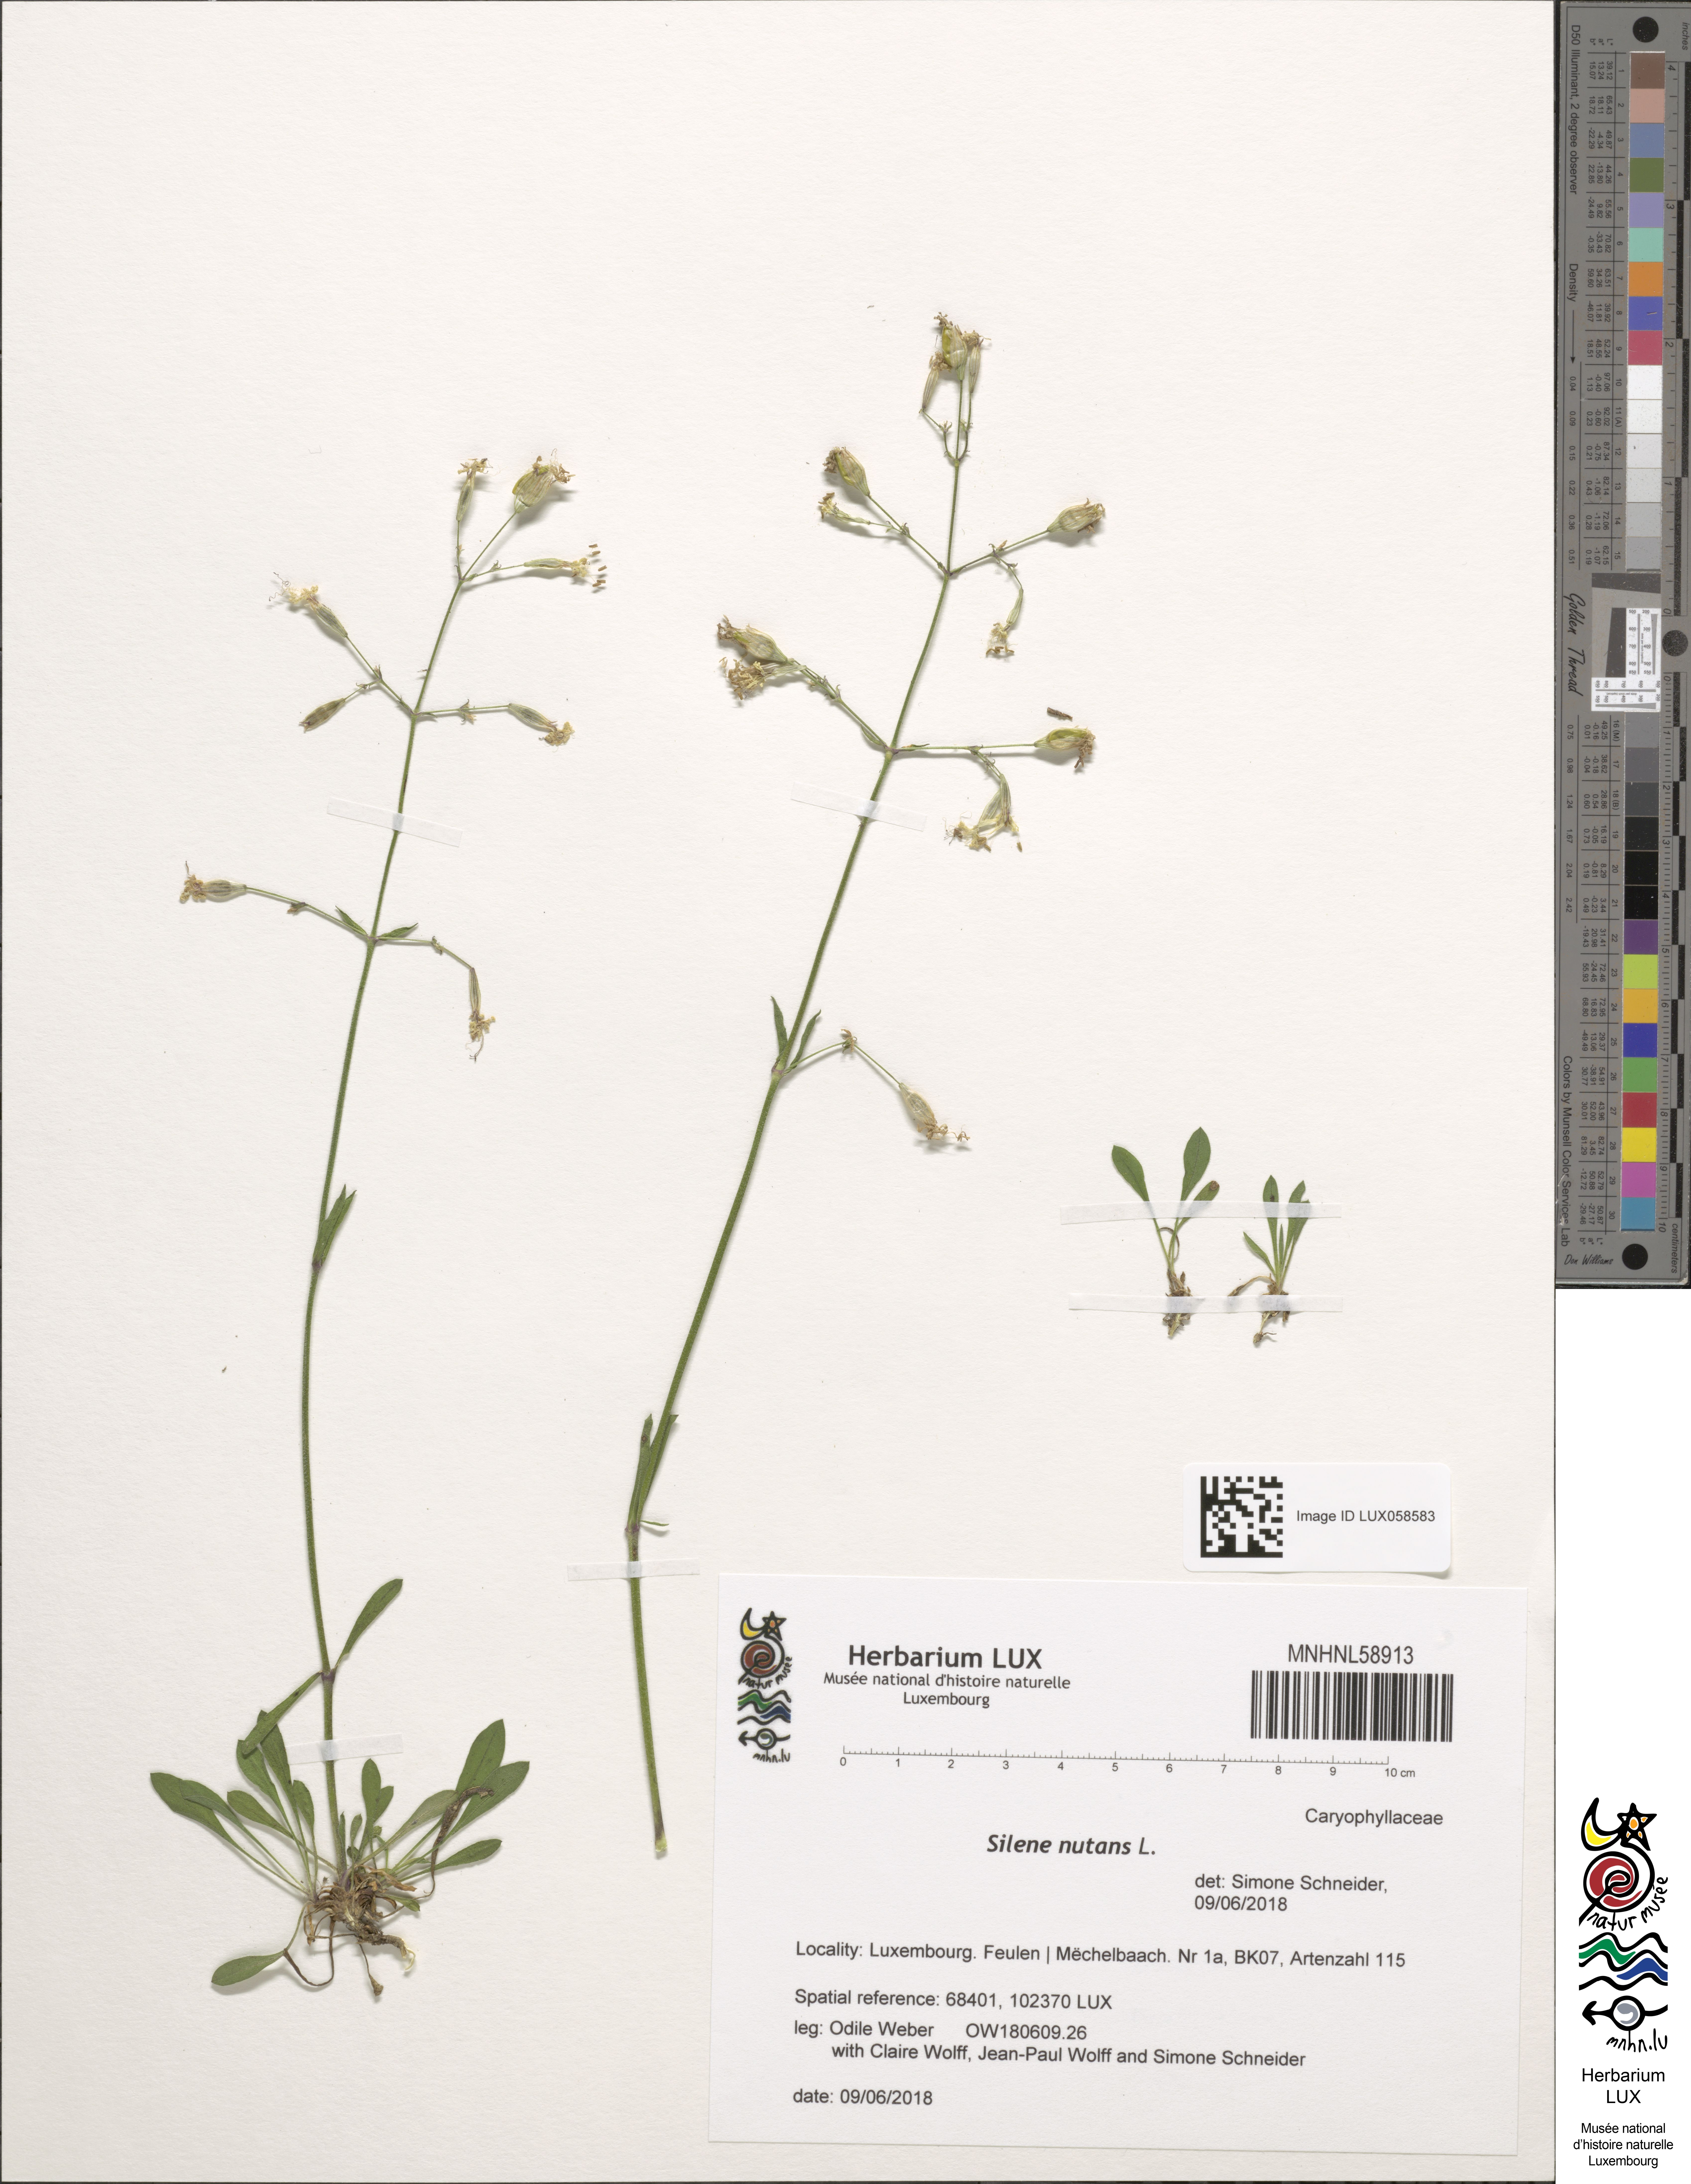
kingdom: Plantae
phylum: Tracheophyta
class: Magnoliopsida
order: Caryophyllales
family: Caryophyllaceae
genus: Silene
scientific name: Silene nutans
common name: Nottingham catchfly
